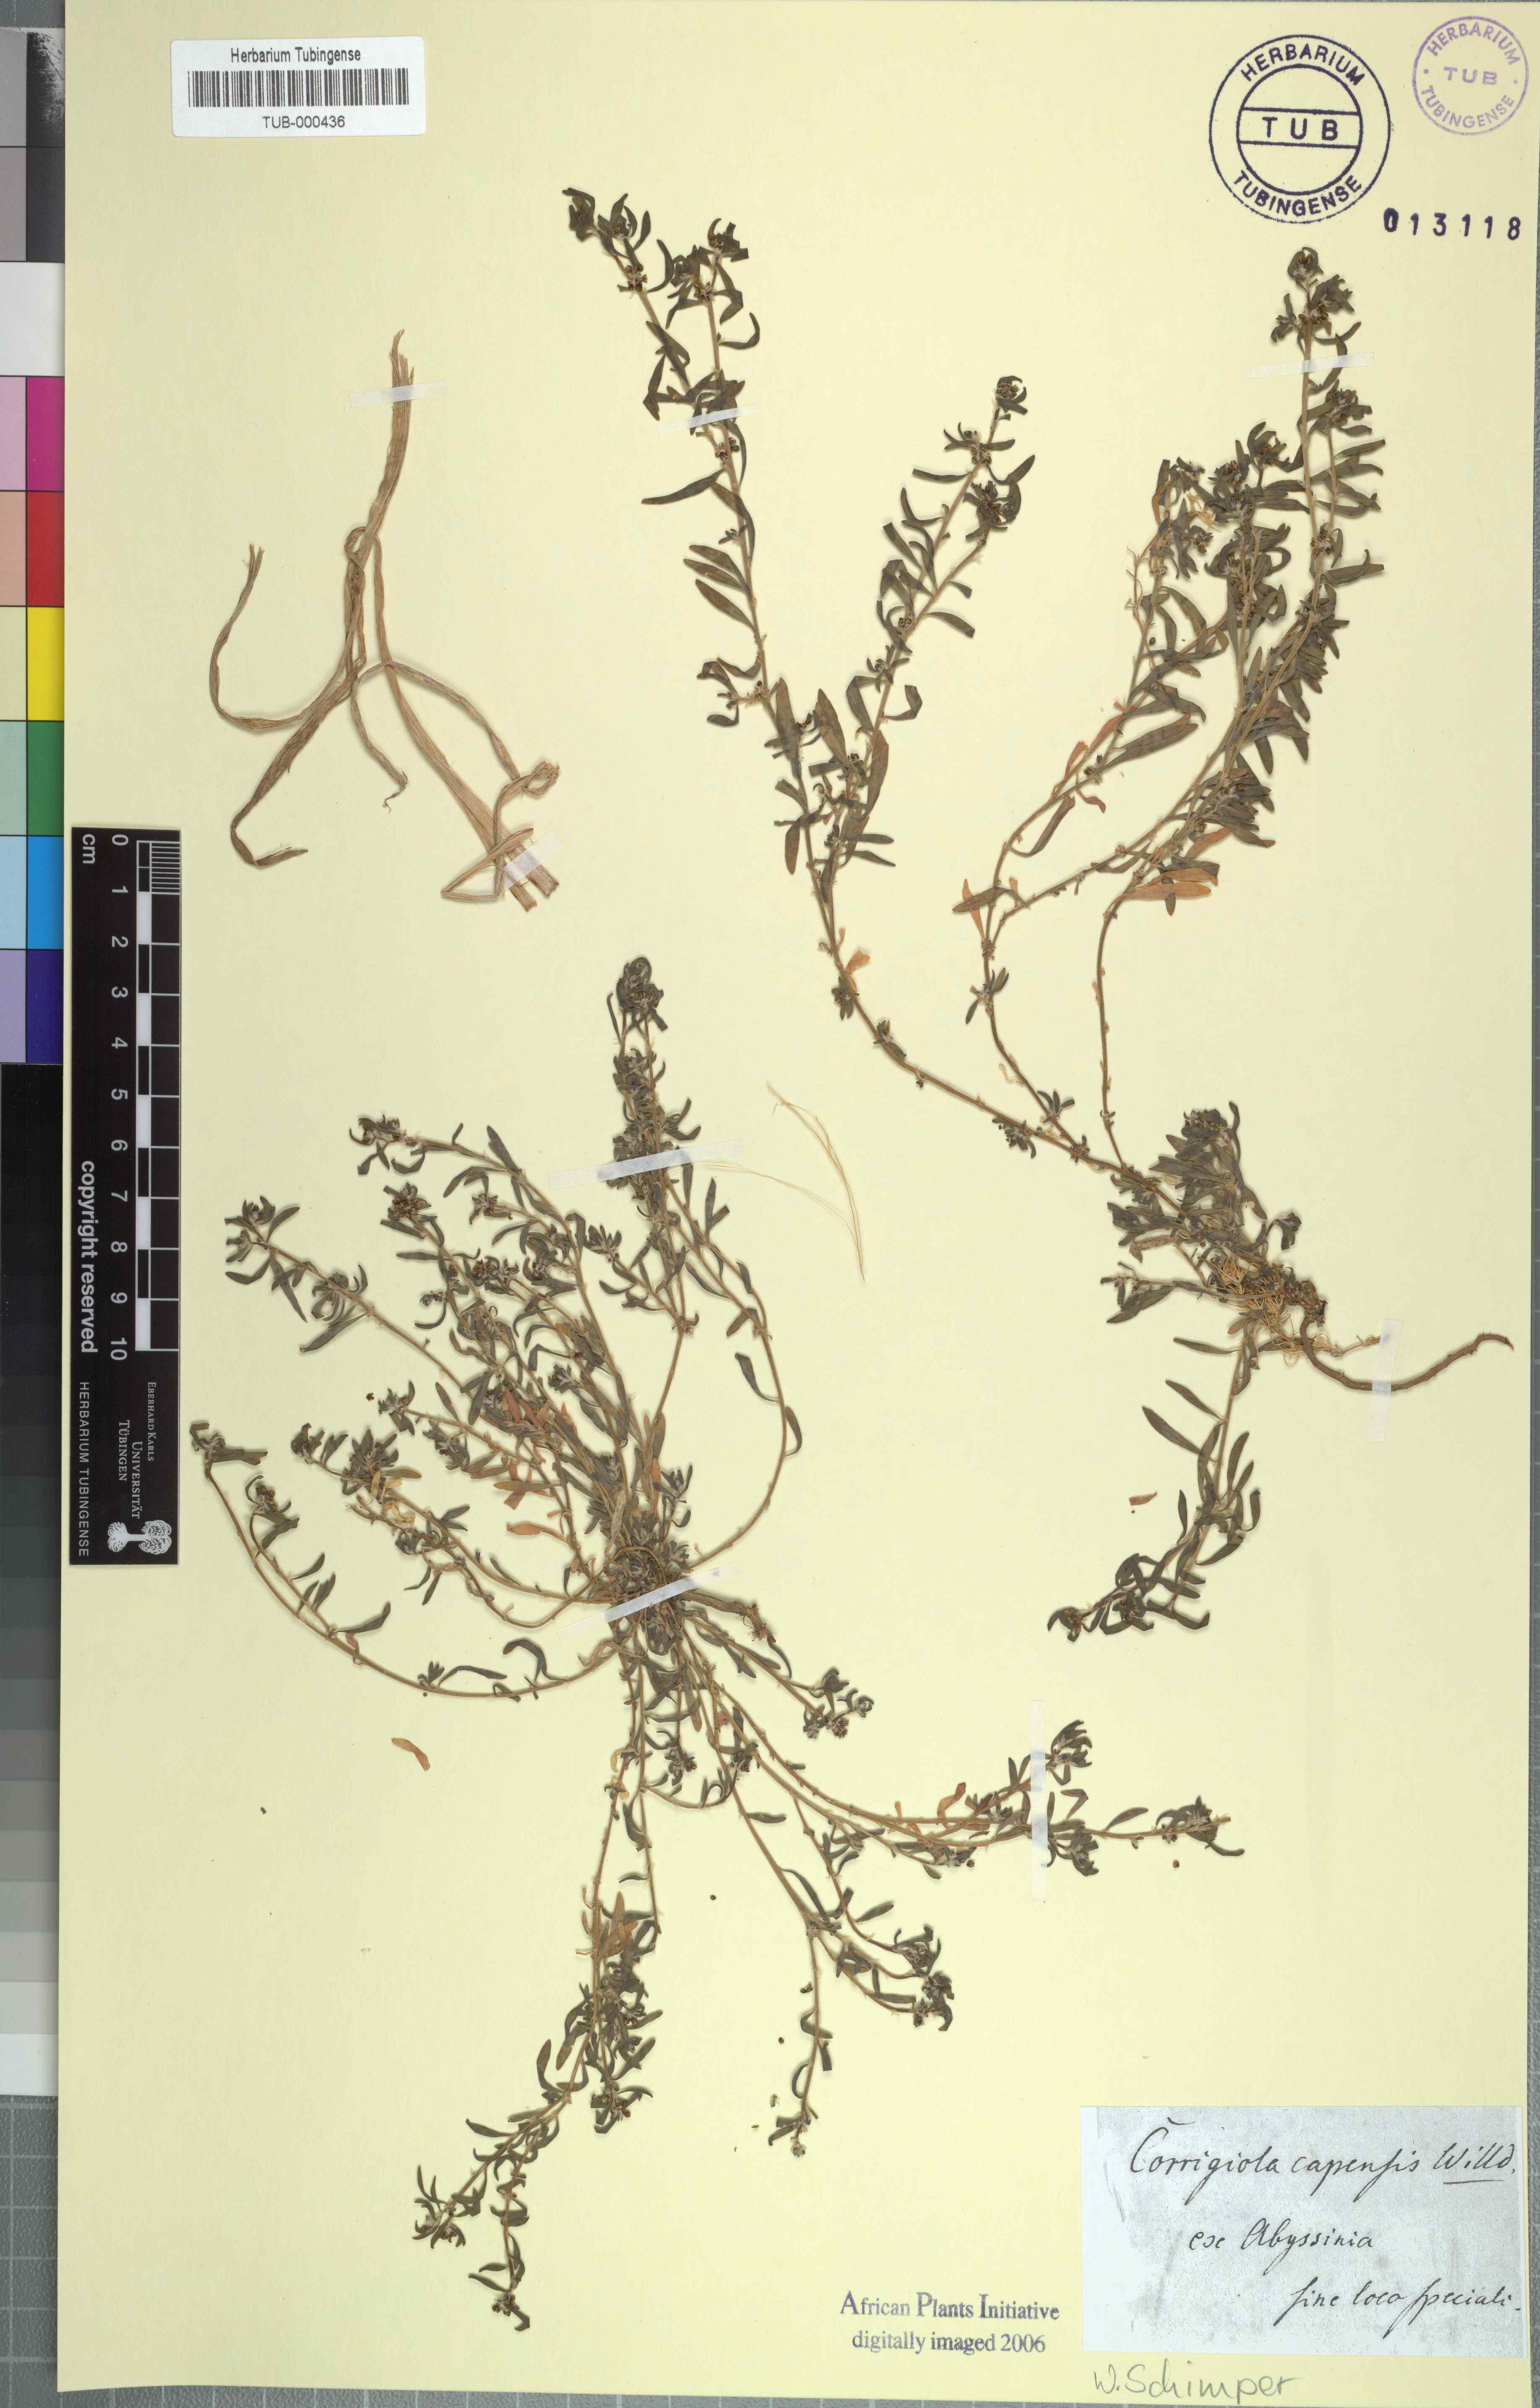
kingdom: Plantae
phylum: Tracheophyta
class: Magnoliopsida
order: Caryophyllales
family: Caryophyllaceae
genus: Corrigiola
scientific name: Corrigiola capensis
